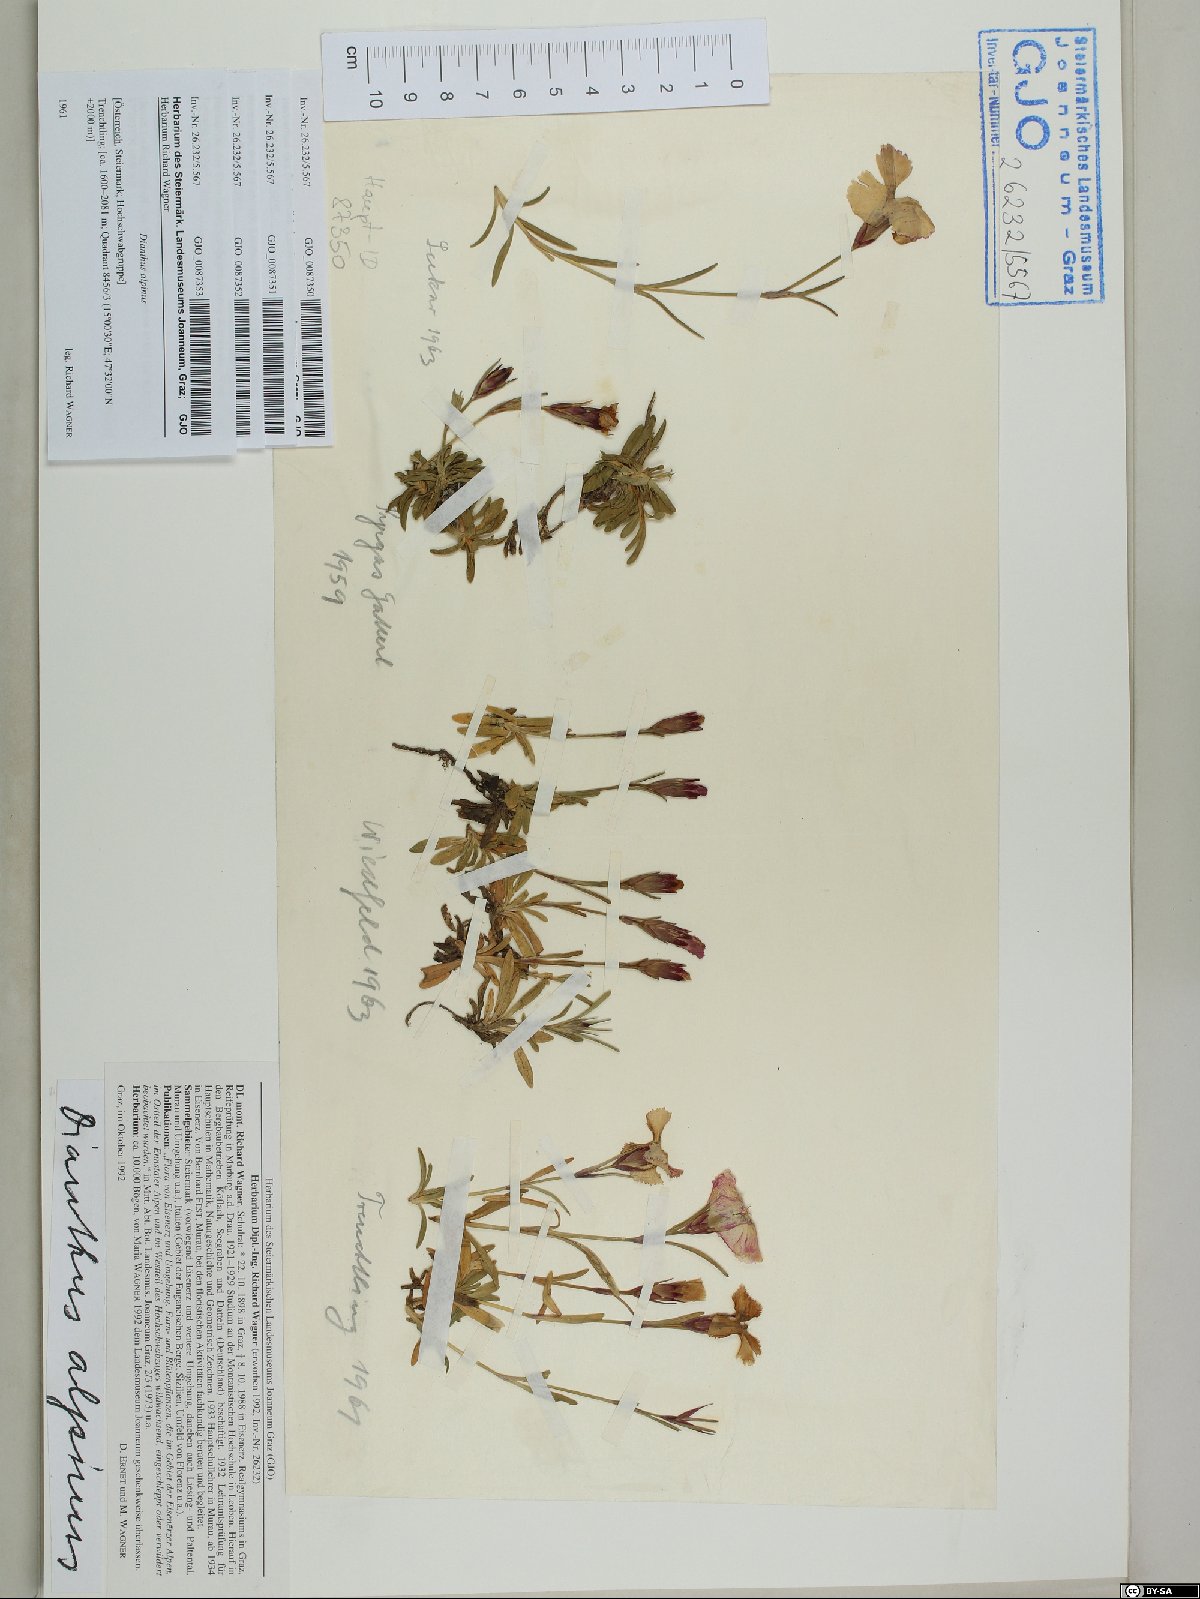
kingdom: Plantae
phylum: Tracheophyta
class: Magnoliopsida
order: Caryophyllales
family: Caryophyllaceae
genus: Dianthus
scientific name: Dianthus alpinus
